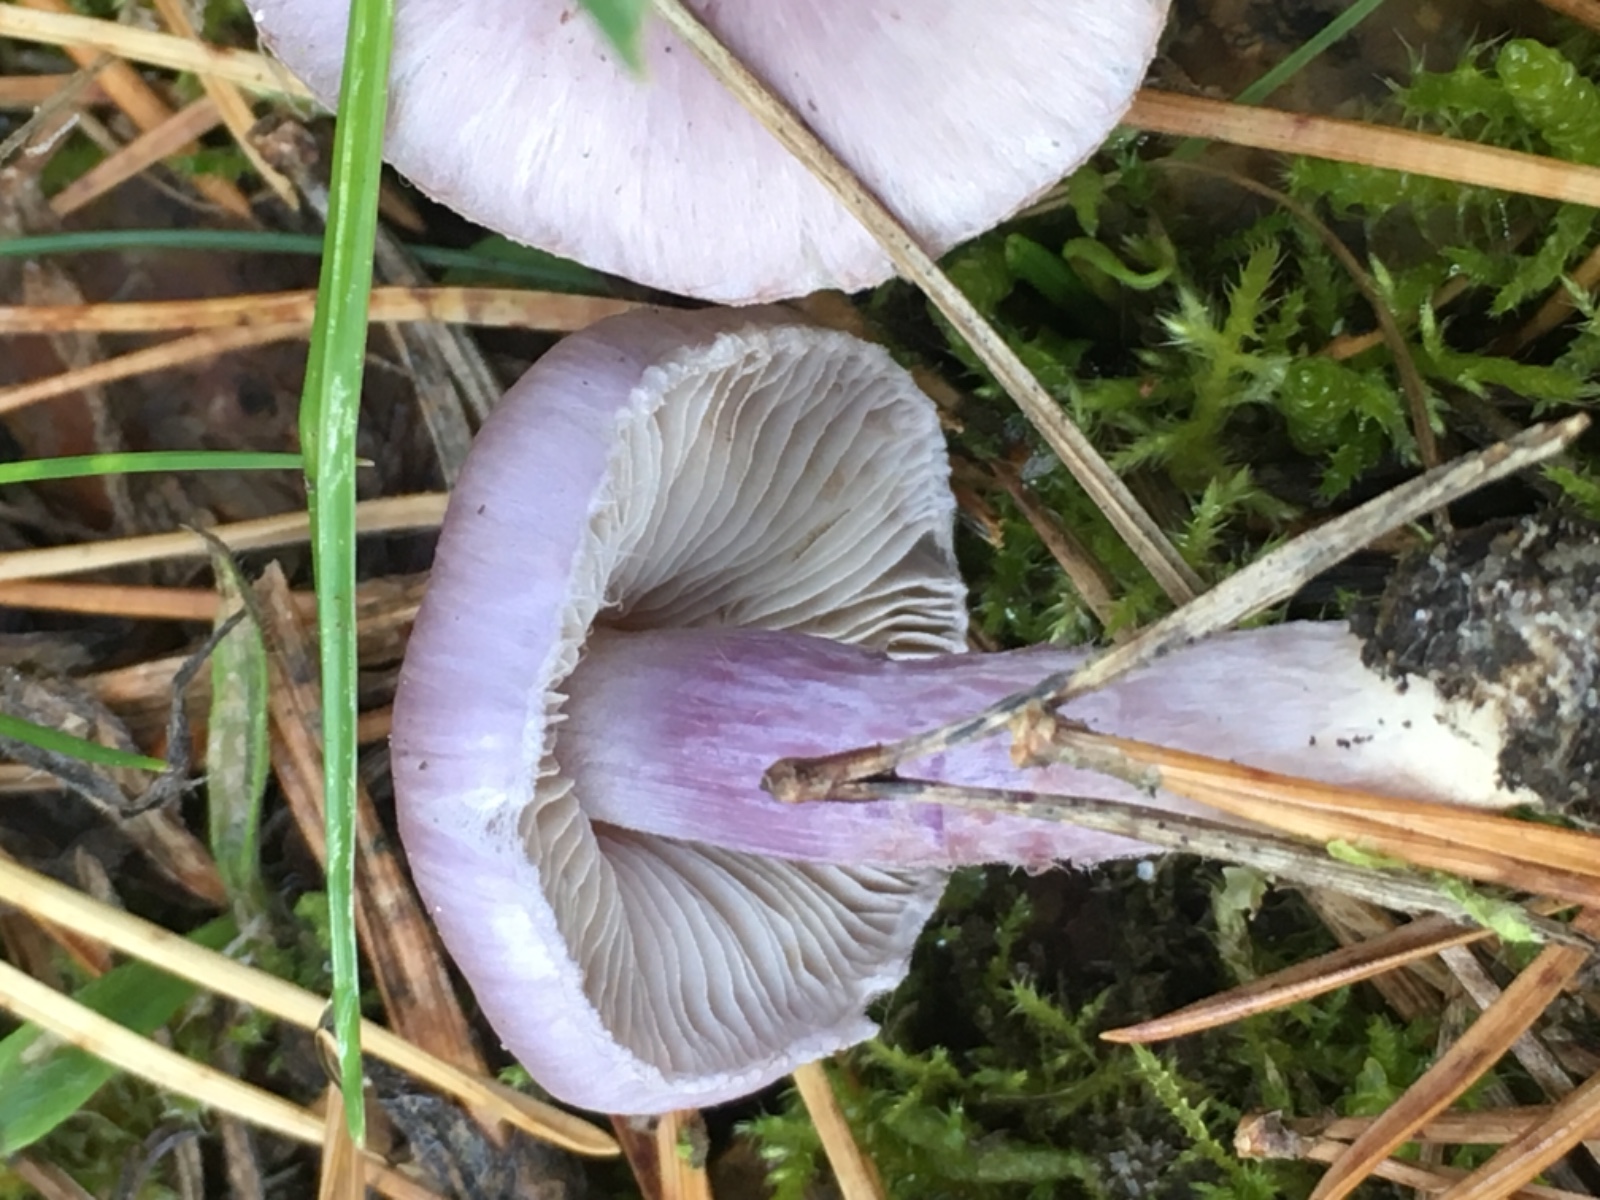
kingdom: Fungi
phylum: Basidiomycota
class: Agaricomycetes
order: Agaricales
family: Inocybaceae
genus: Inocybe
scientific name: Inocybe geophylla
